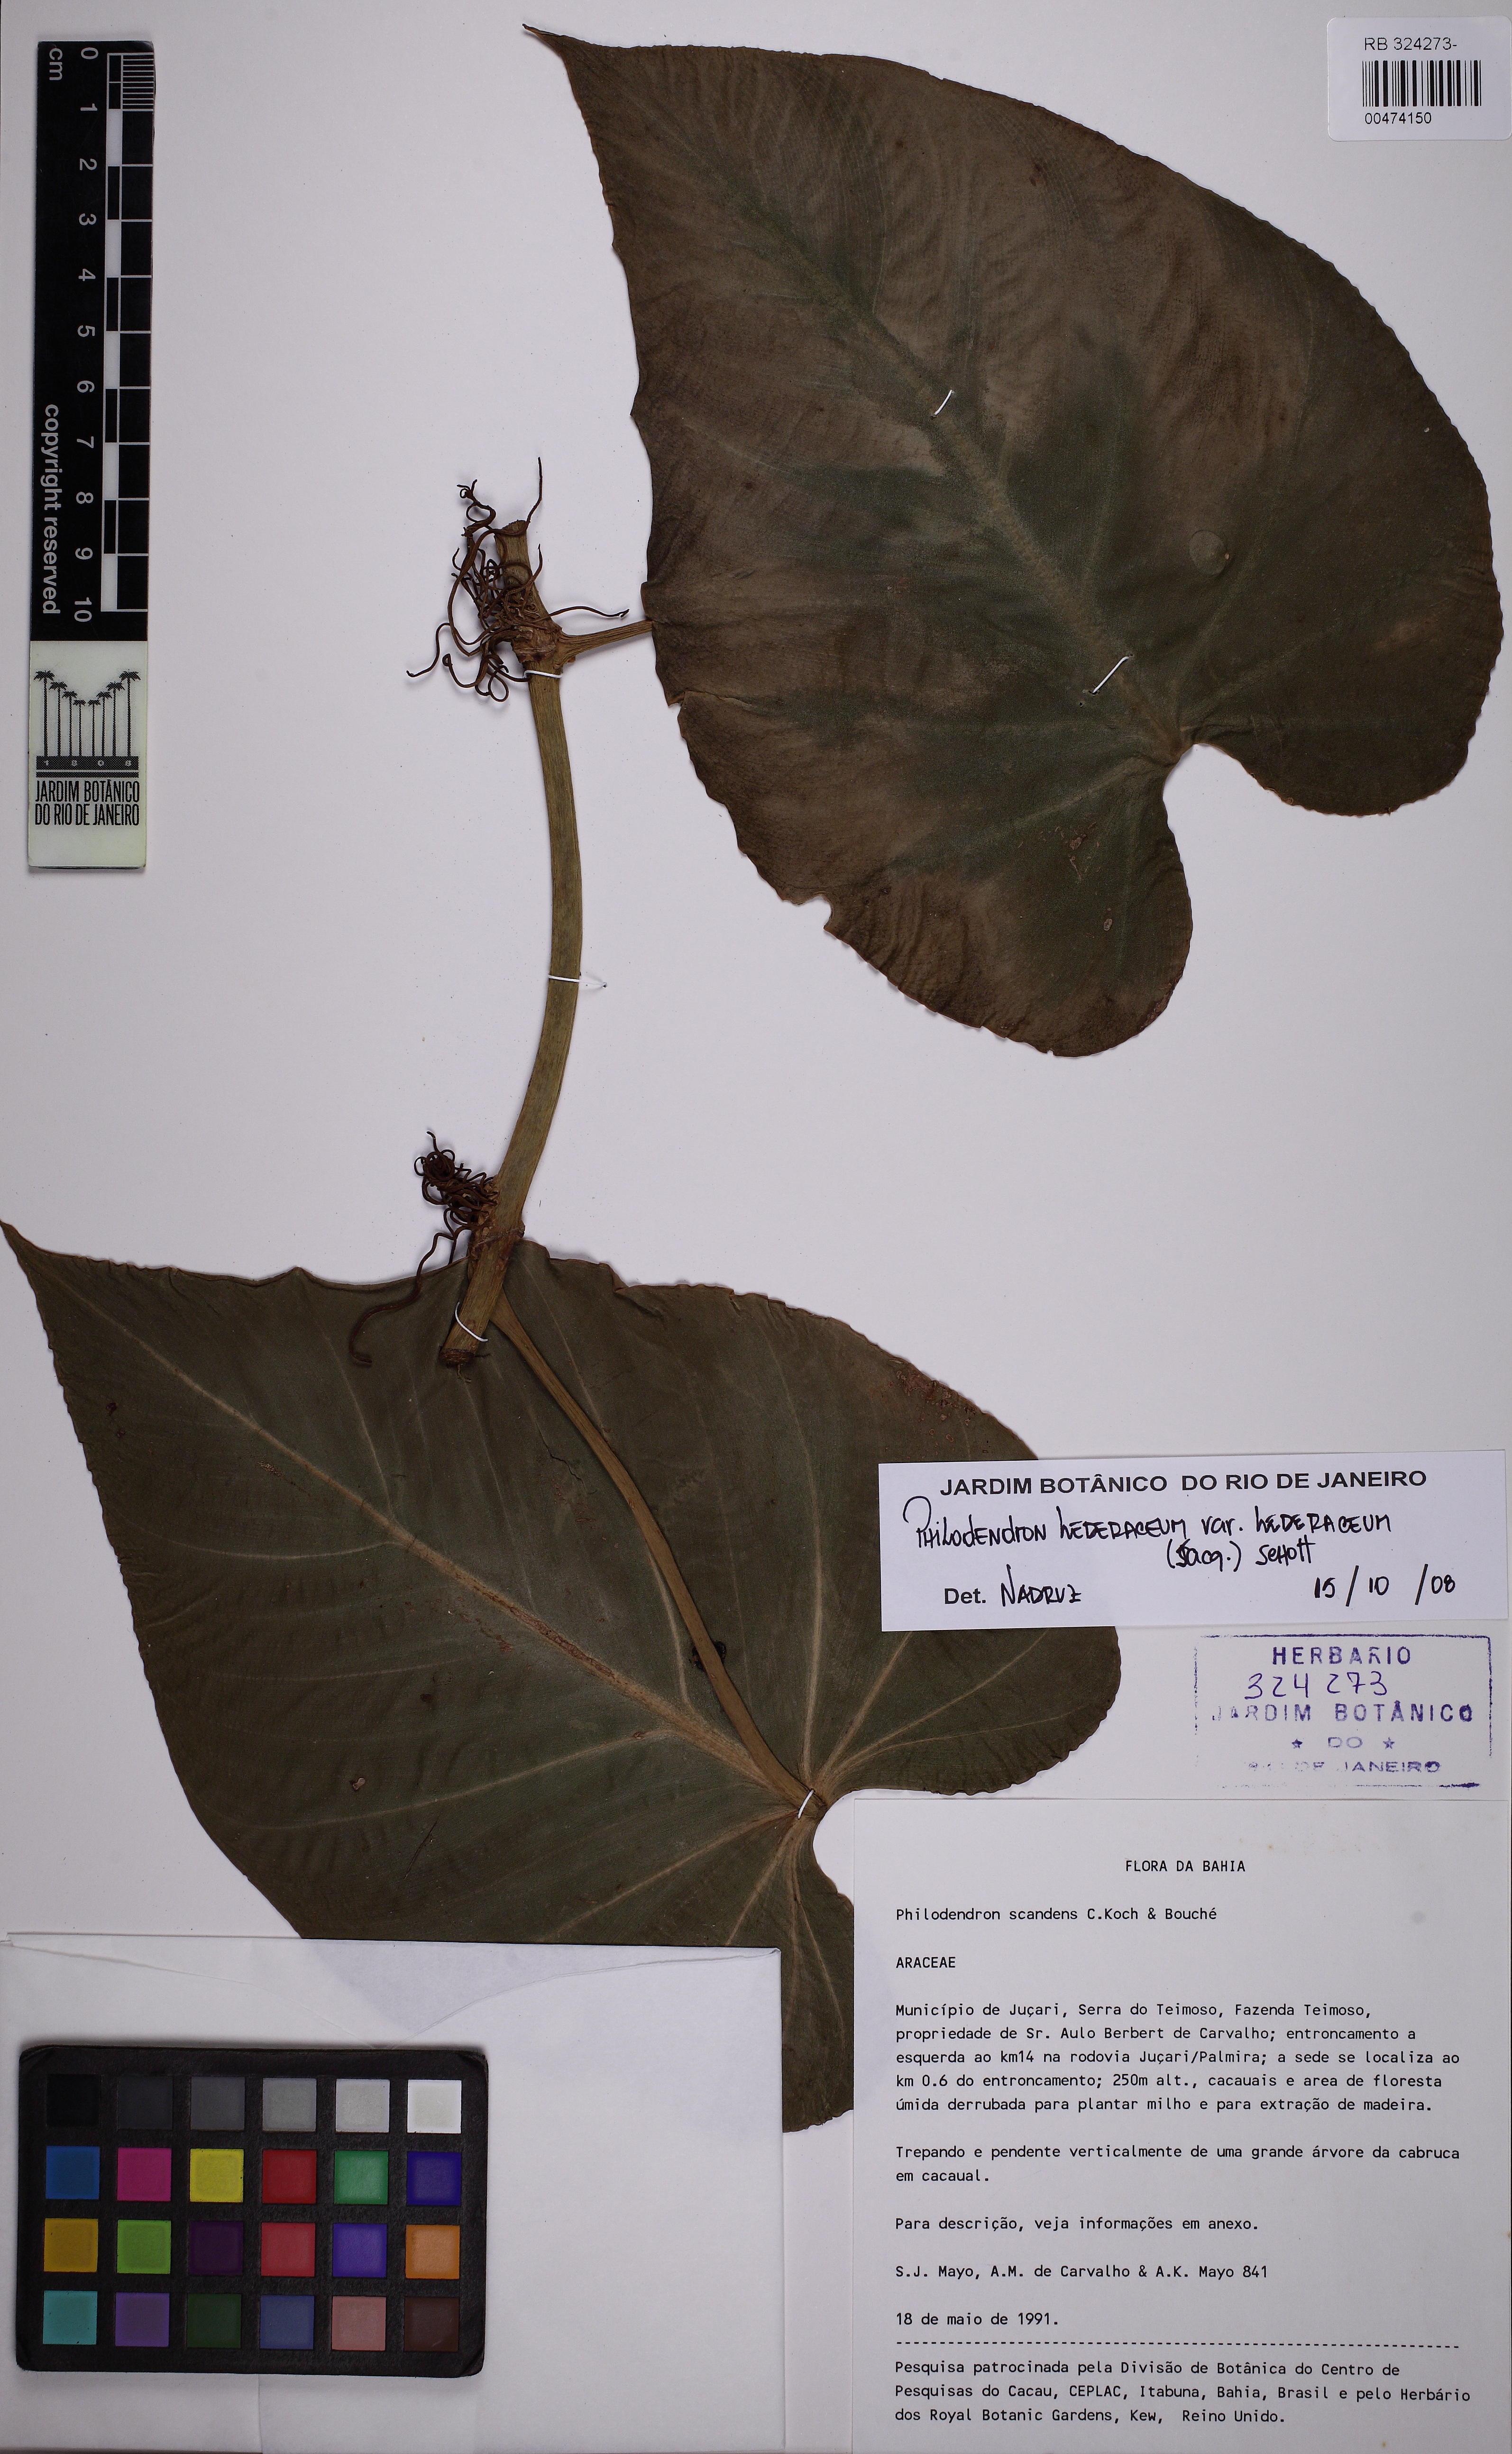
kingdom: Plantae
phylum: Tracheophyta
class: Liliopsida
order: Alismatales
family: Araceae
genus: Philodendron
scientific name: Philodendron hederaceum
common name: Vilevine
